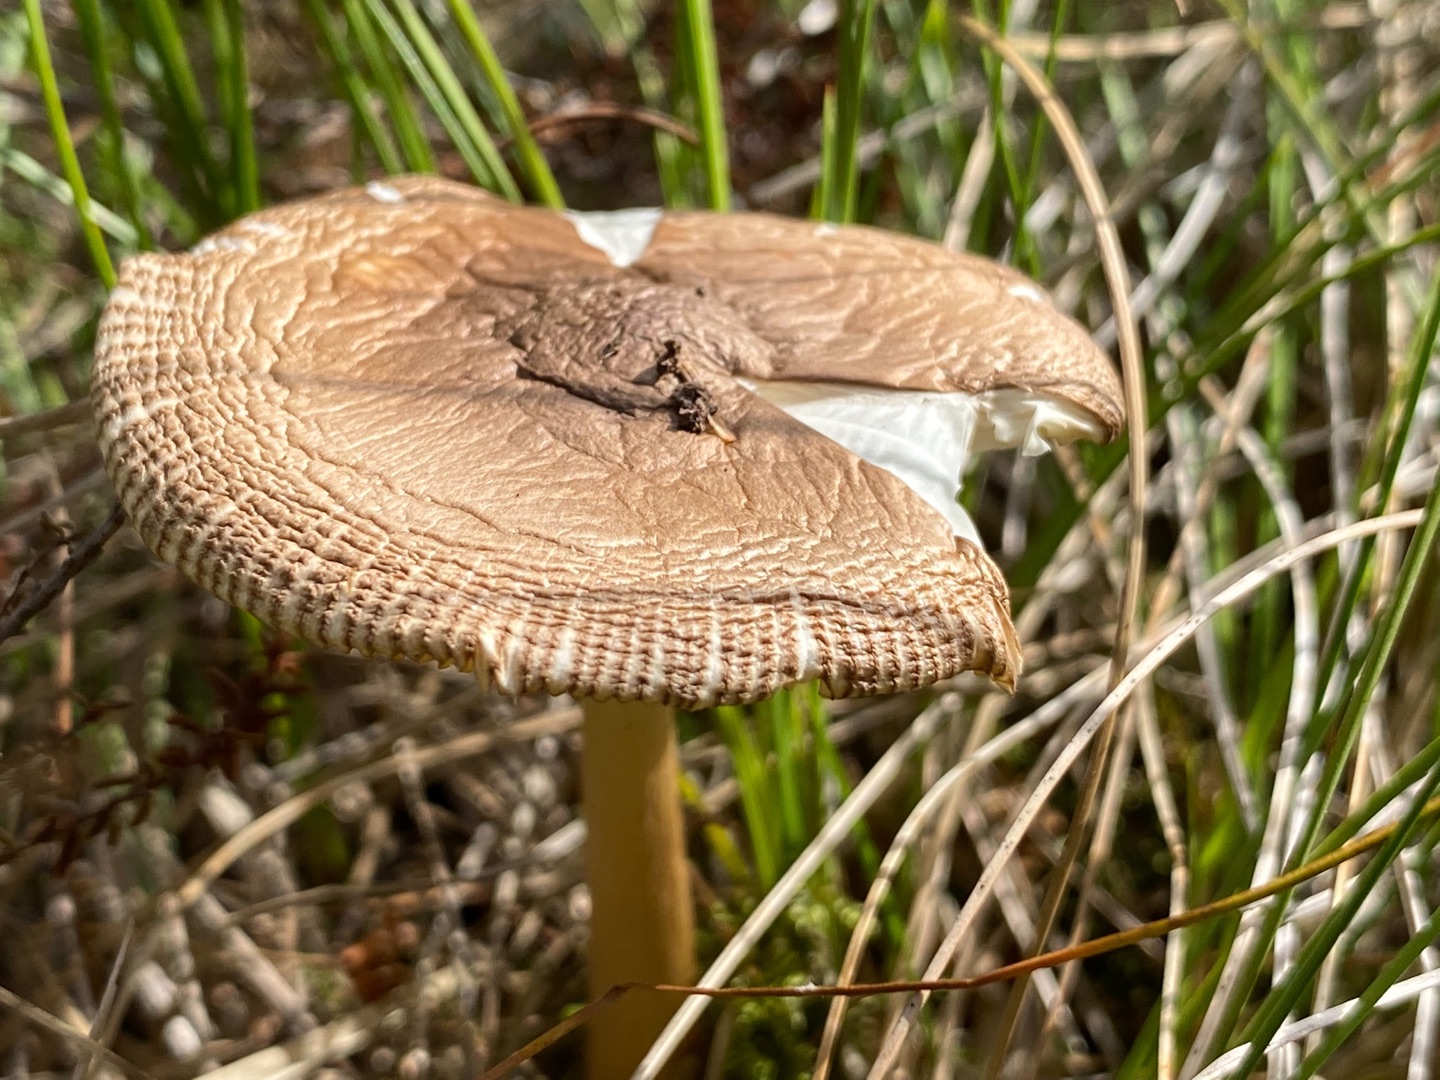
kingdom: Fungi
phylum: Basidiomycota
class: Agaricomycetes
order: Agaricales
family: Amanitaceae
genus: Amanita
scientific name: Amanita fulva
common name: Brun kam-fluesvamp
